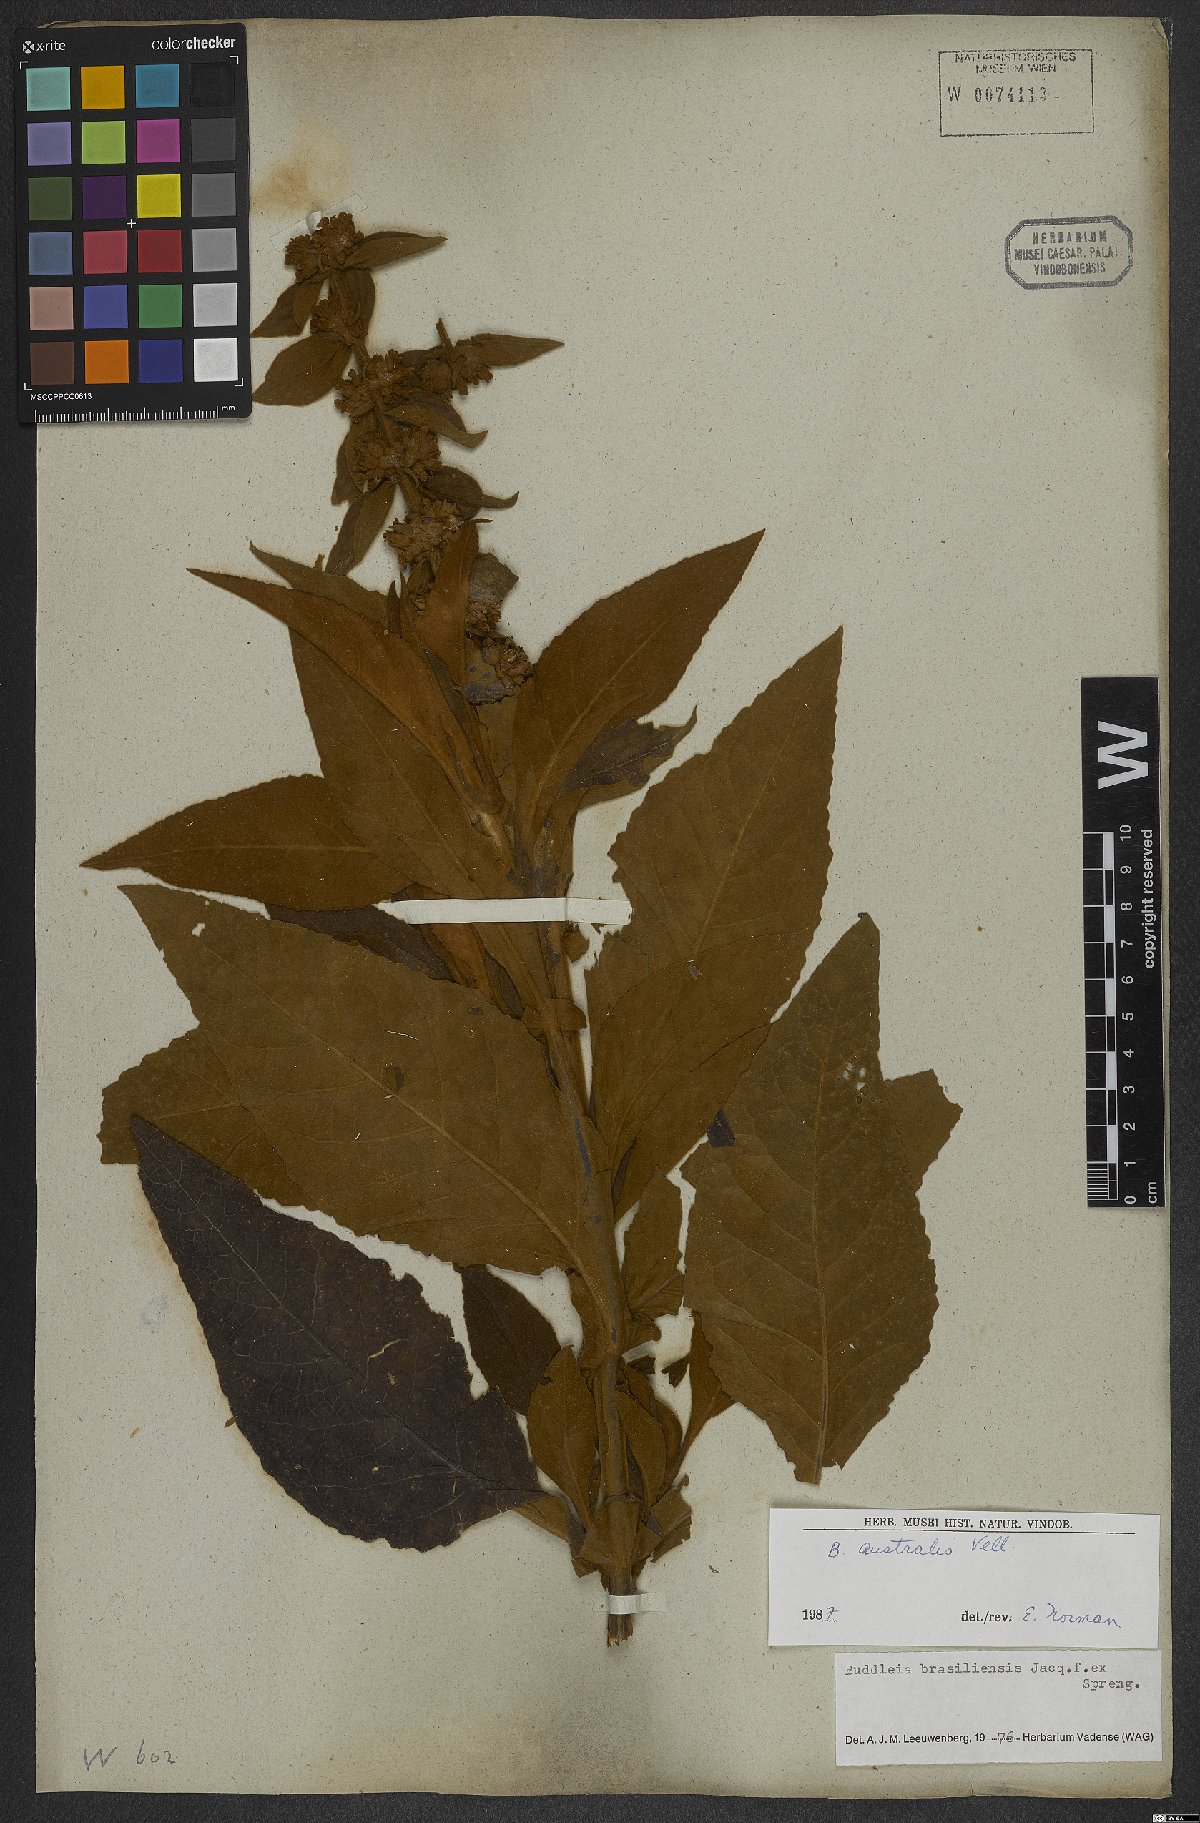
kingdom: Plantae
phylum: Tracheophyta
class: Magnoliopsida
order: Lamiales
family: Scrophulariaceae
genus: Buddleja
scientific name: Buddleja stachyoides
